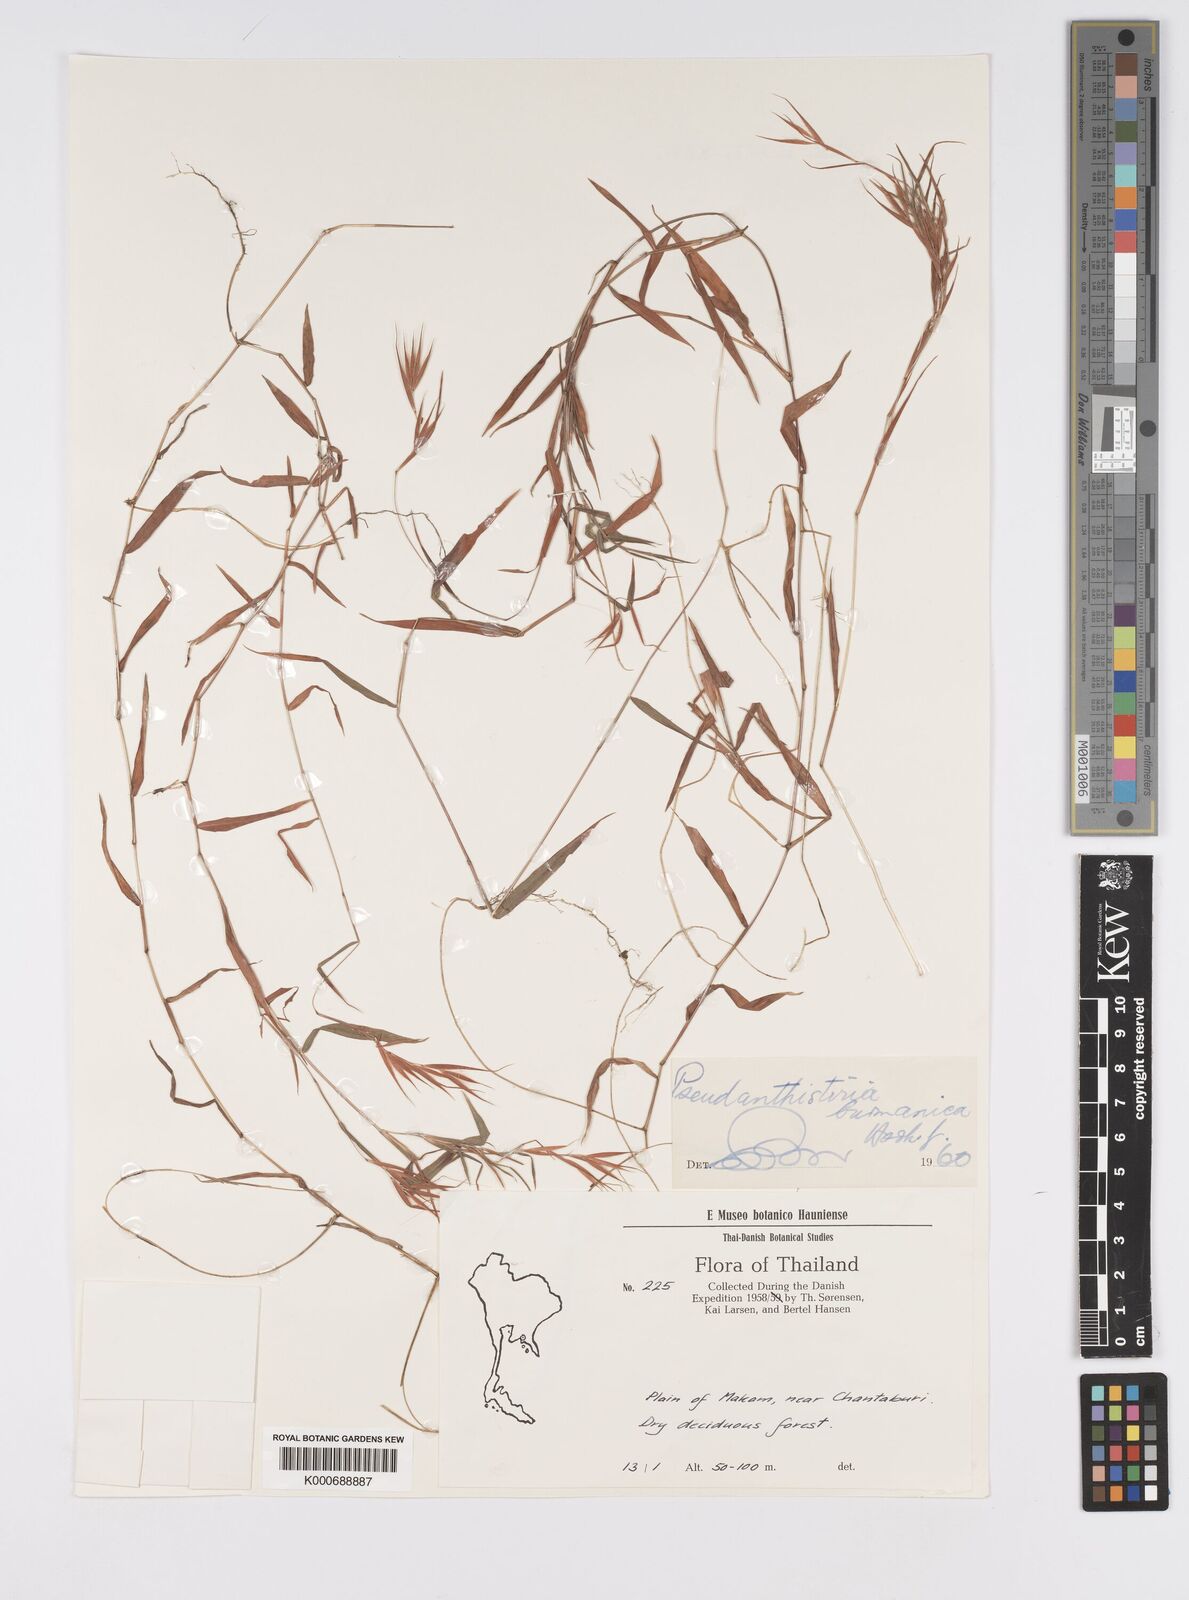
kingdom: Plantae
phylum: Tracheophyta
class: Liliopsida
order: Poales
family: Poaceae
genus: Pseudanthistiria
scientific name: Pseudanthistiria umbellata
